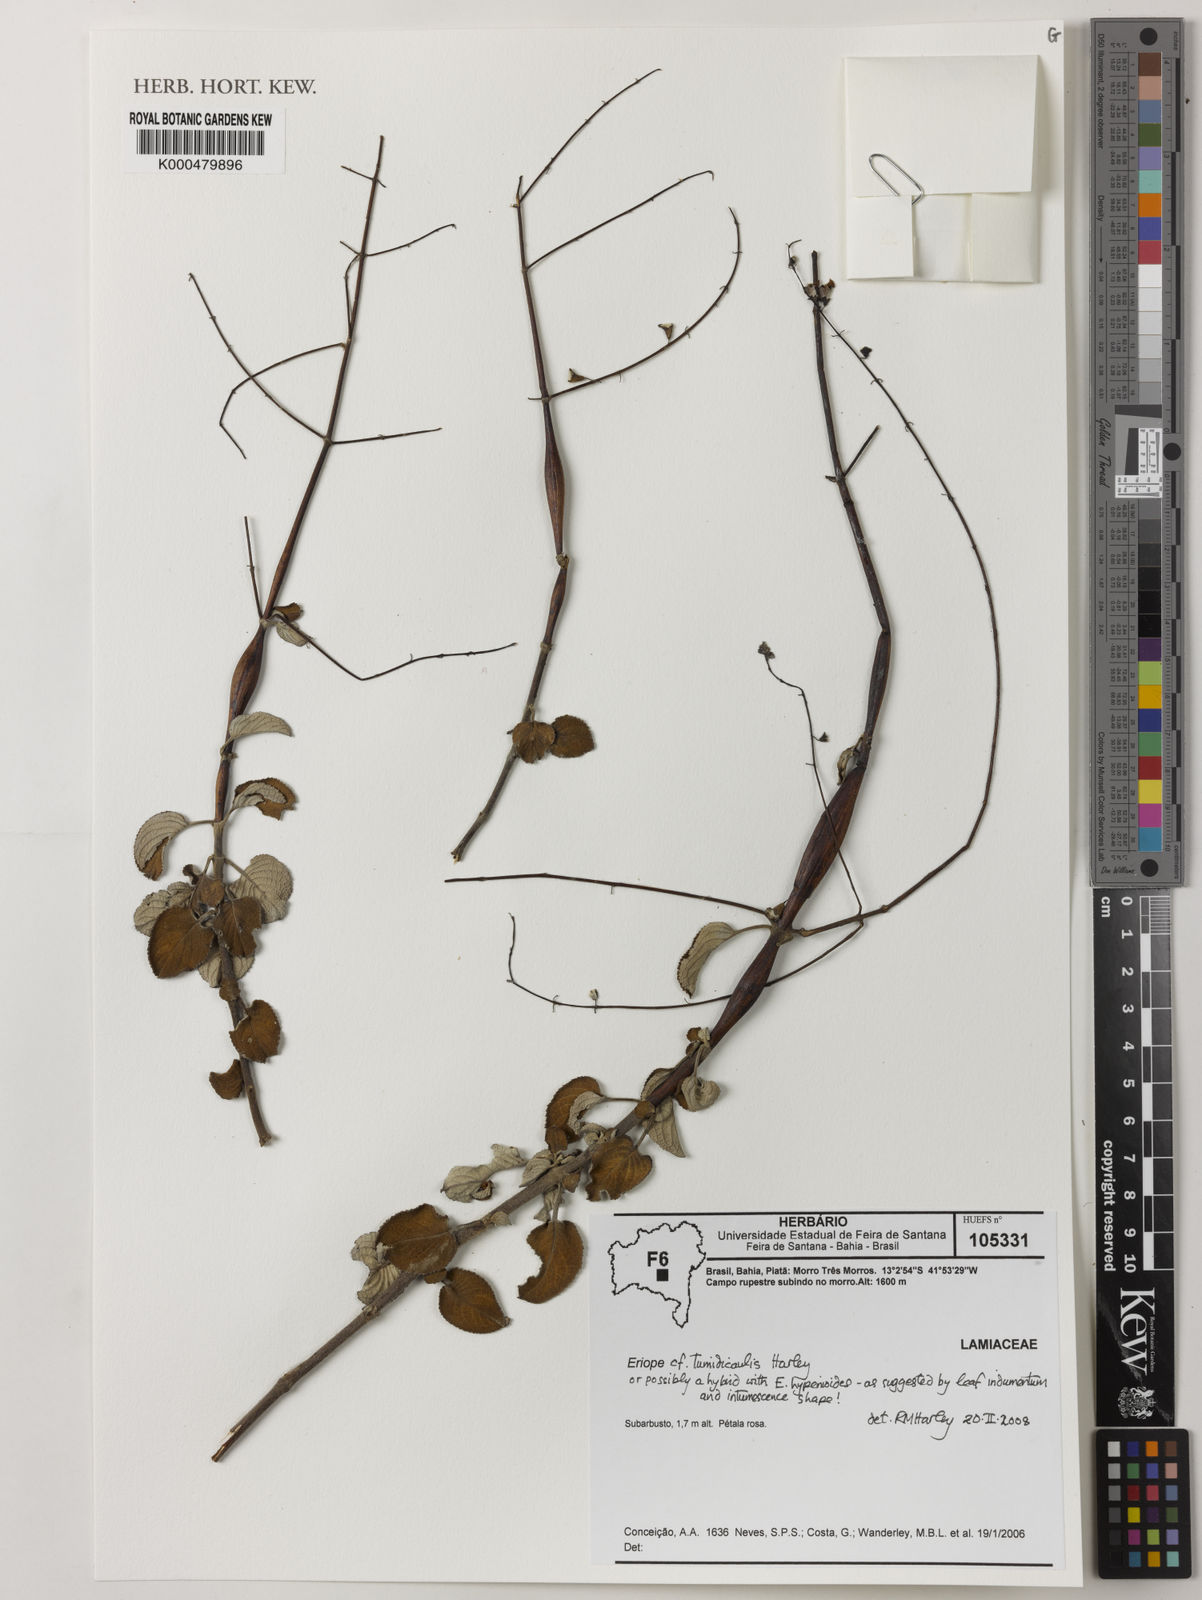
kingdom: Plantae
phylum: Tracheophyta
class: Magnoliopsida
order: Lamiales
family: Lamiaceae
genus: Eriope
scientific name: Eriope tumidicaulis
